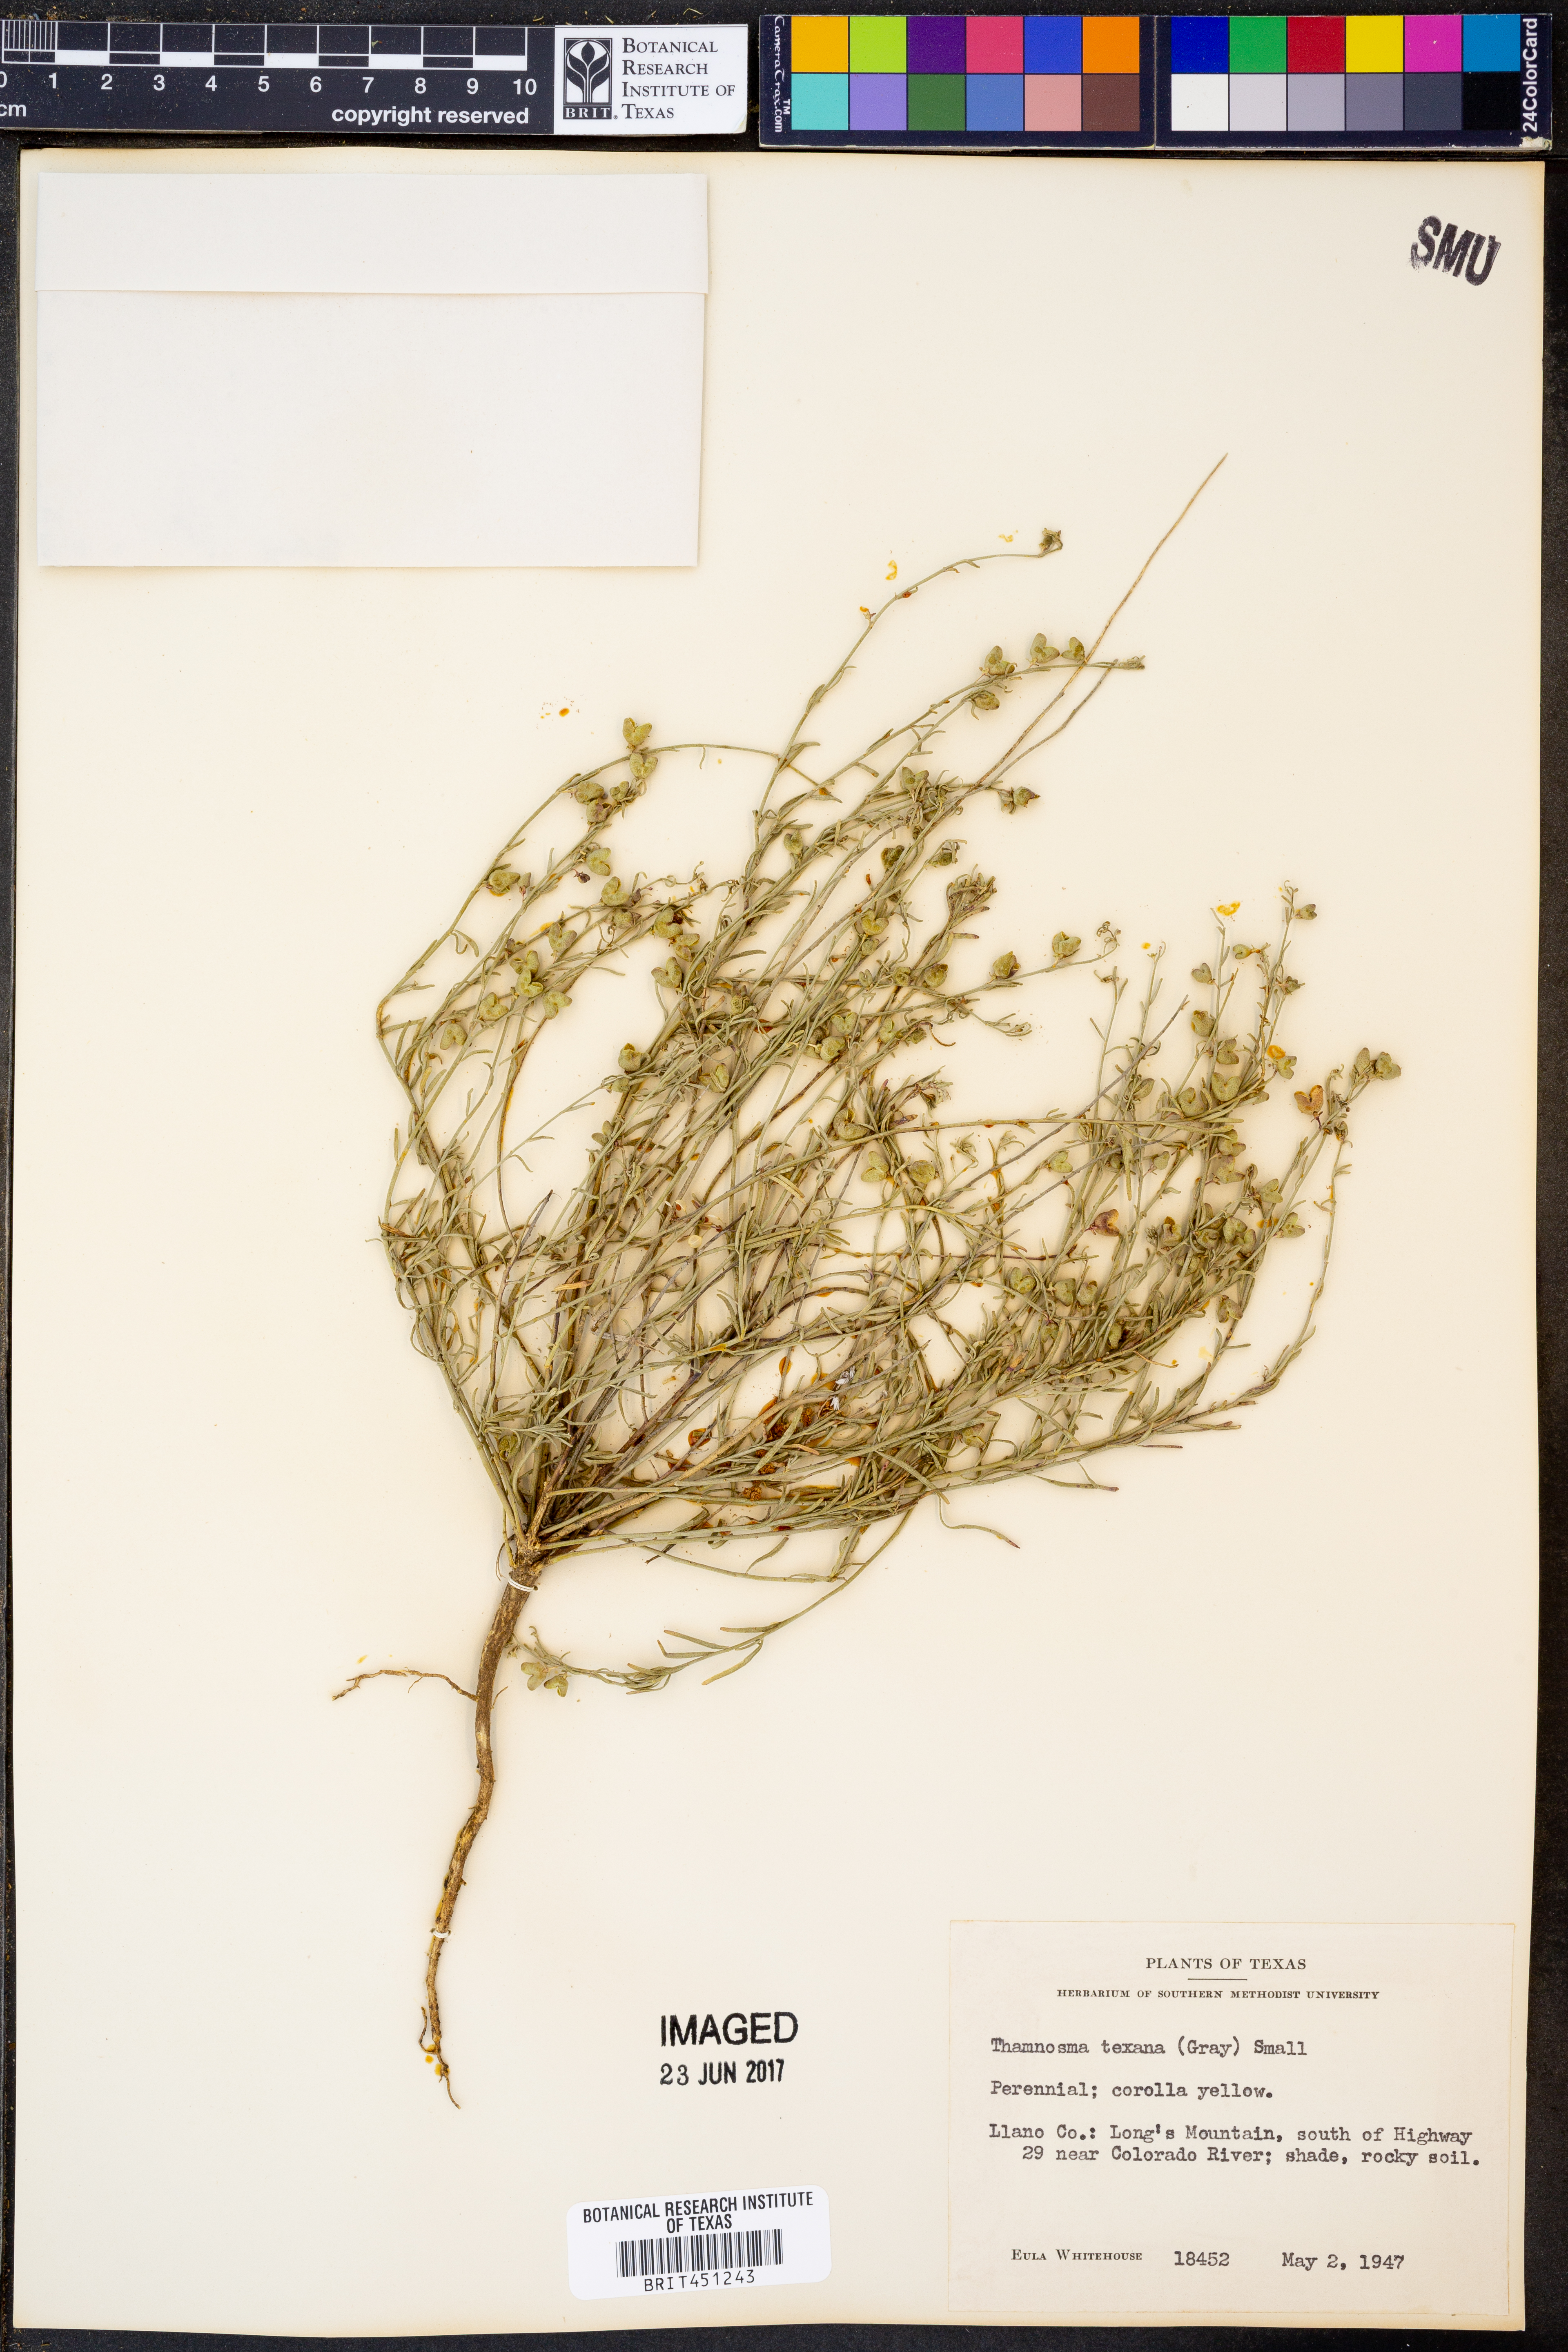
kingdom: Plantae
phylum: Tracheophyta
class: Magnoliopsida
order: Sapindales
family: Rutaceae
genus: Thamnosma
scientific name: Thamnosma texana
